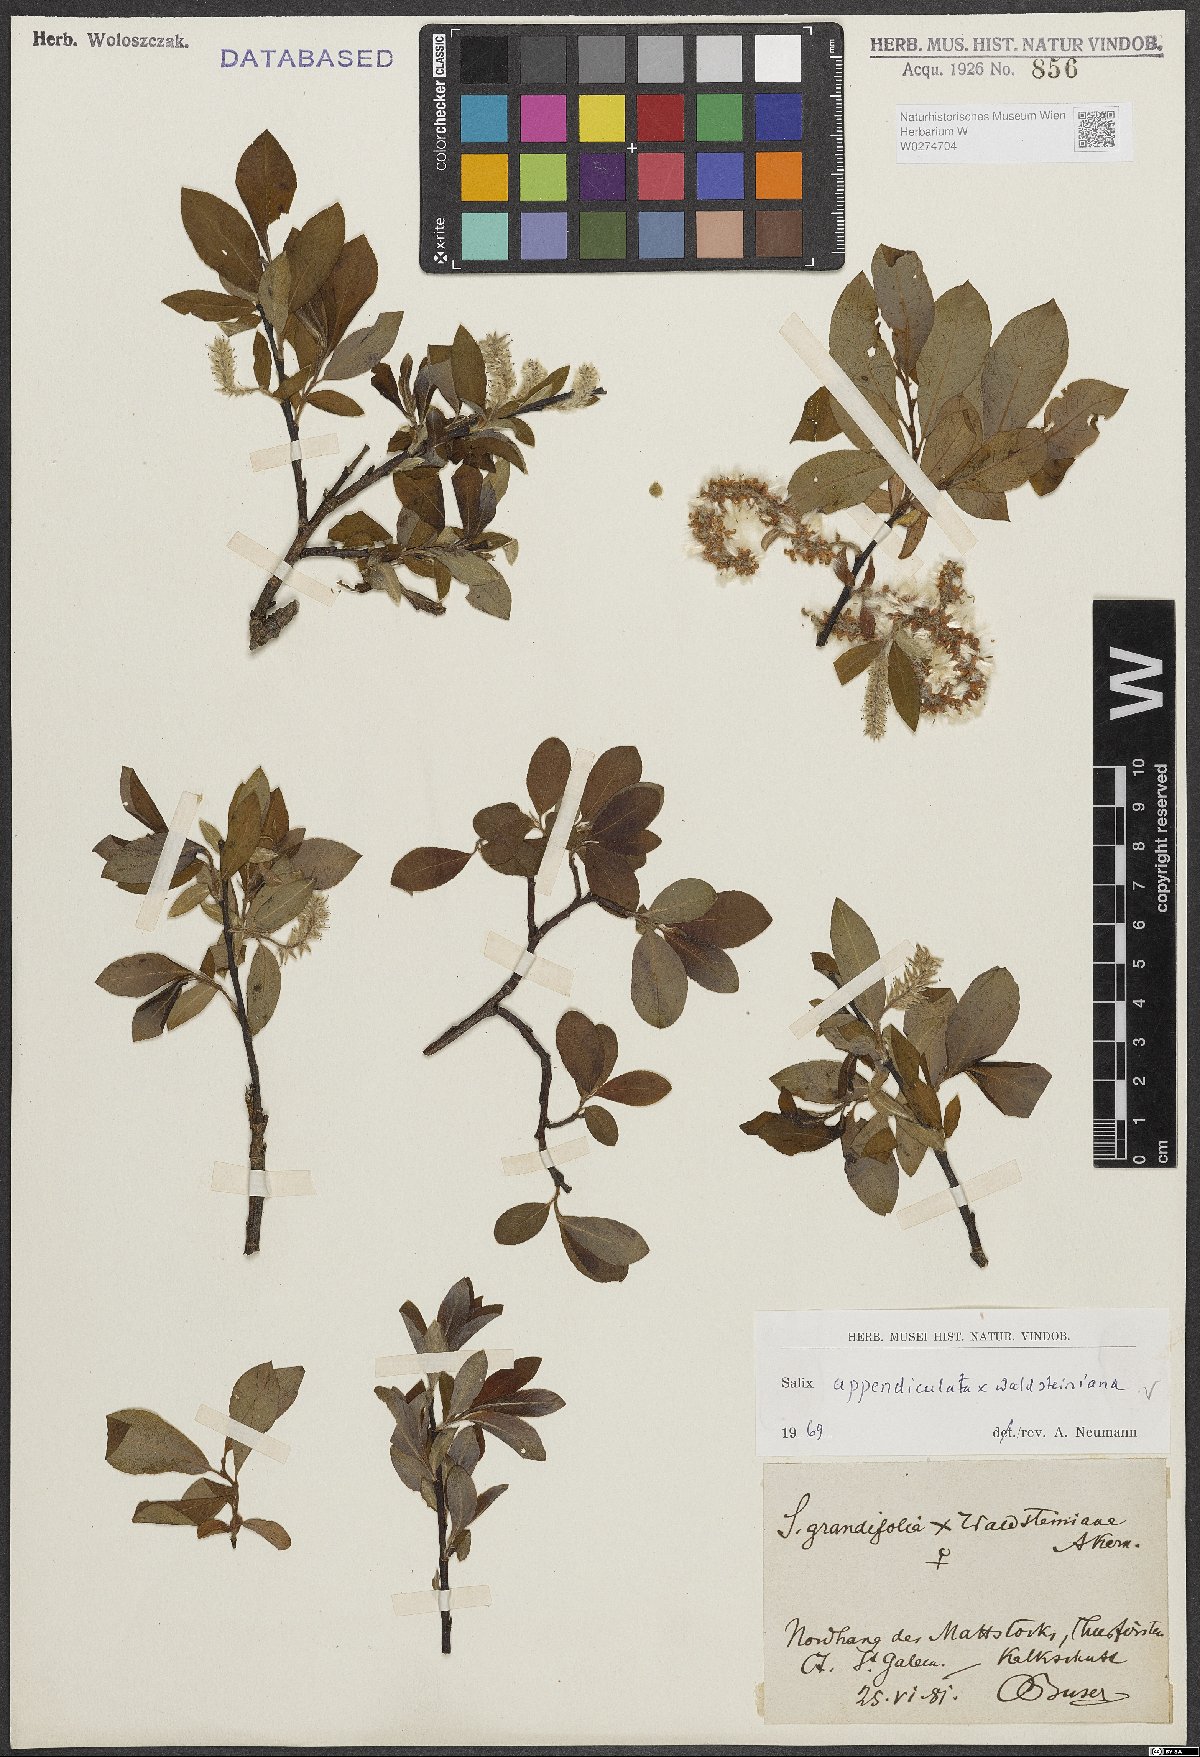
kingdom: Plantae
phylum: Tracheophyta
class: Magnoliopsida
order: Malpighiales
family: Salicaceae
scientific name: Salicaceae
